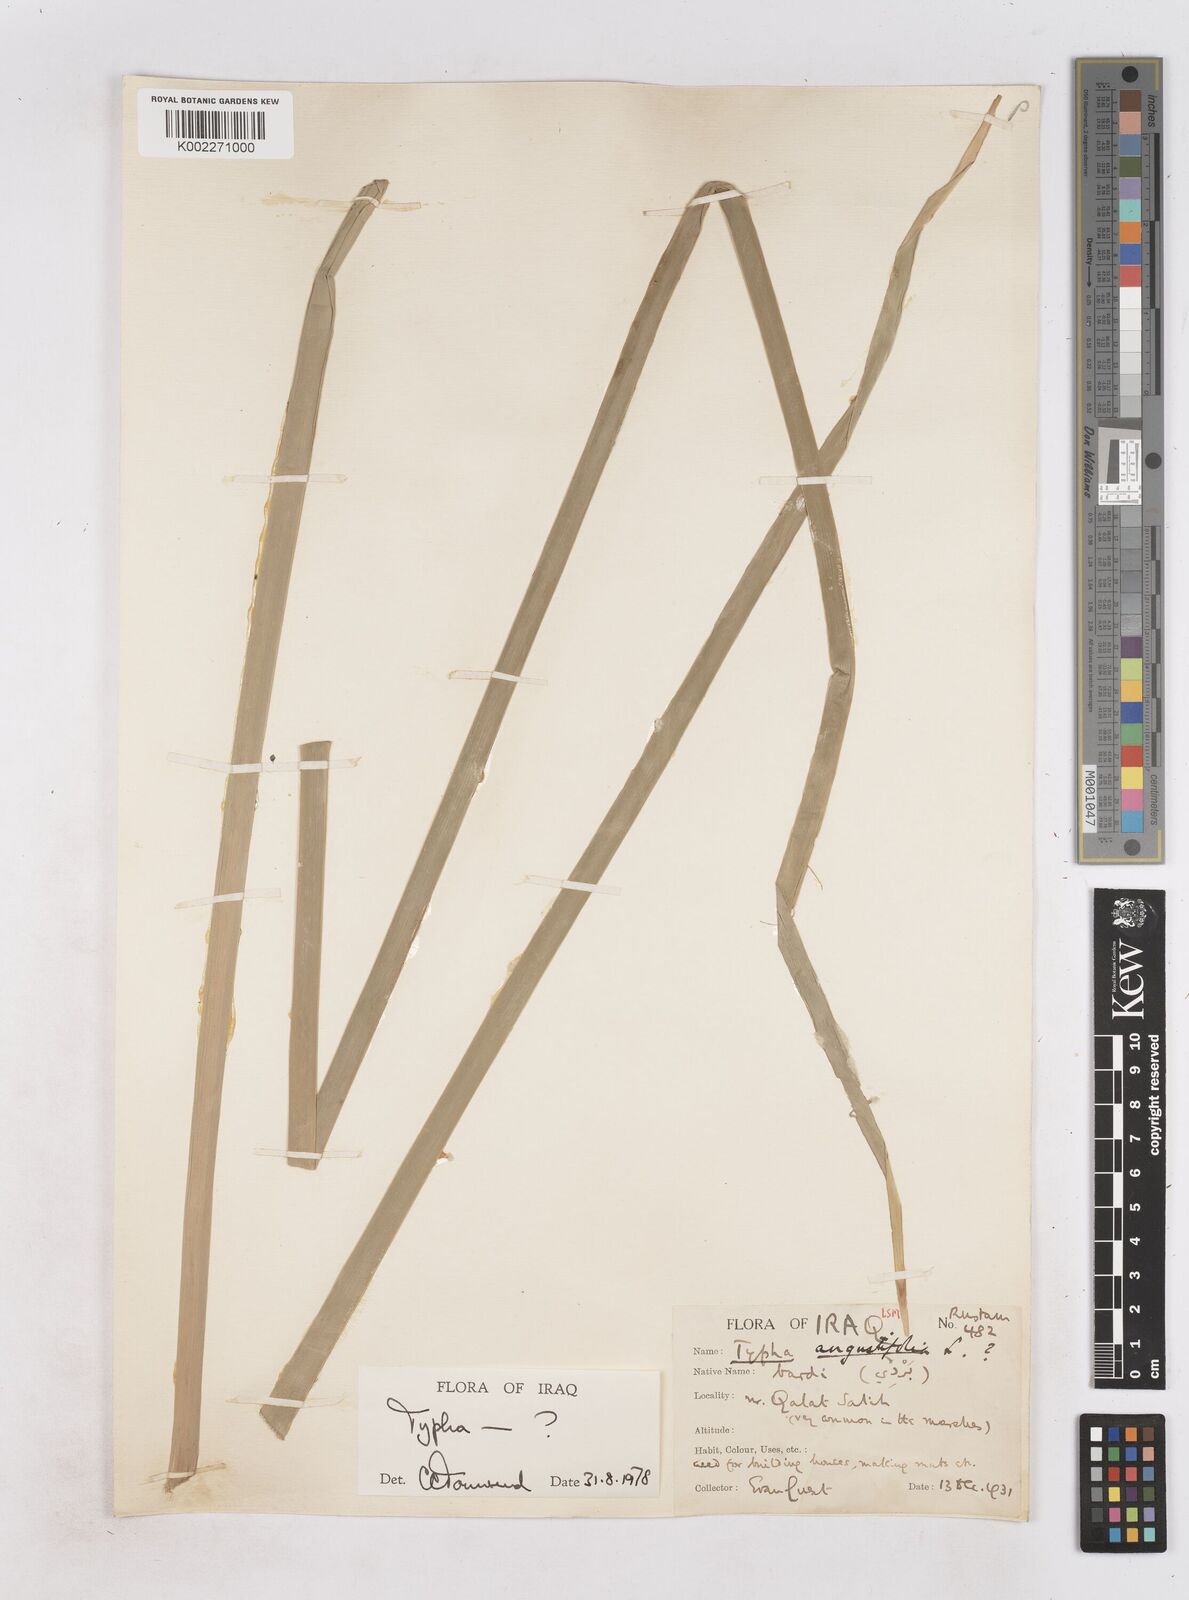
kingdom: Plantae
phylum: Tracheophyta
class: Liliopsida
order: Poales
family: Typhaceae
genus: Typha
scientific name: Typha domingensis
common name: Southern cattail
